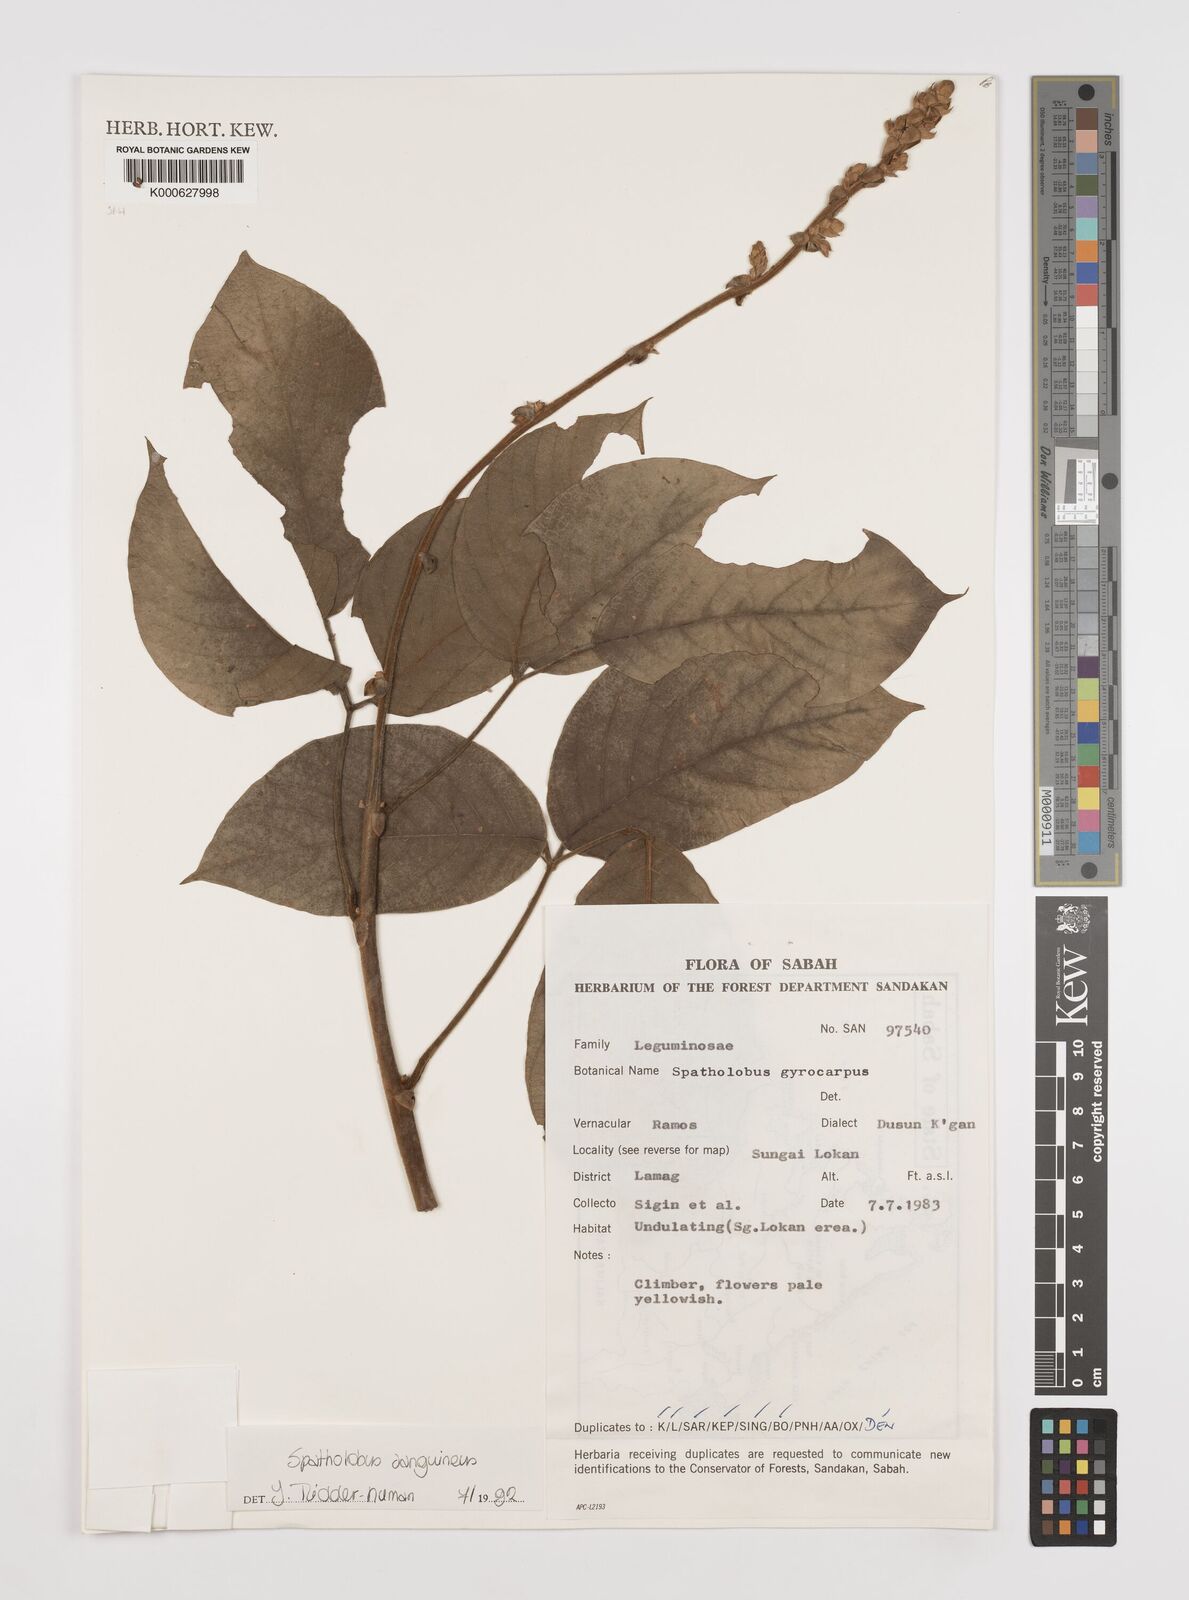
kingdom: Plantae
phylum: Tracheophyta
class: Magnoliopsida
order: Fabales
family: Fabaceae
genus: Spatholobus
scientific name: Spatholobus
